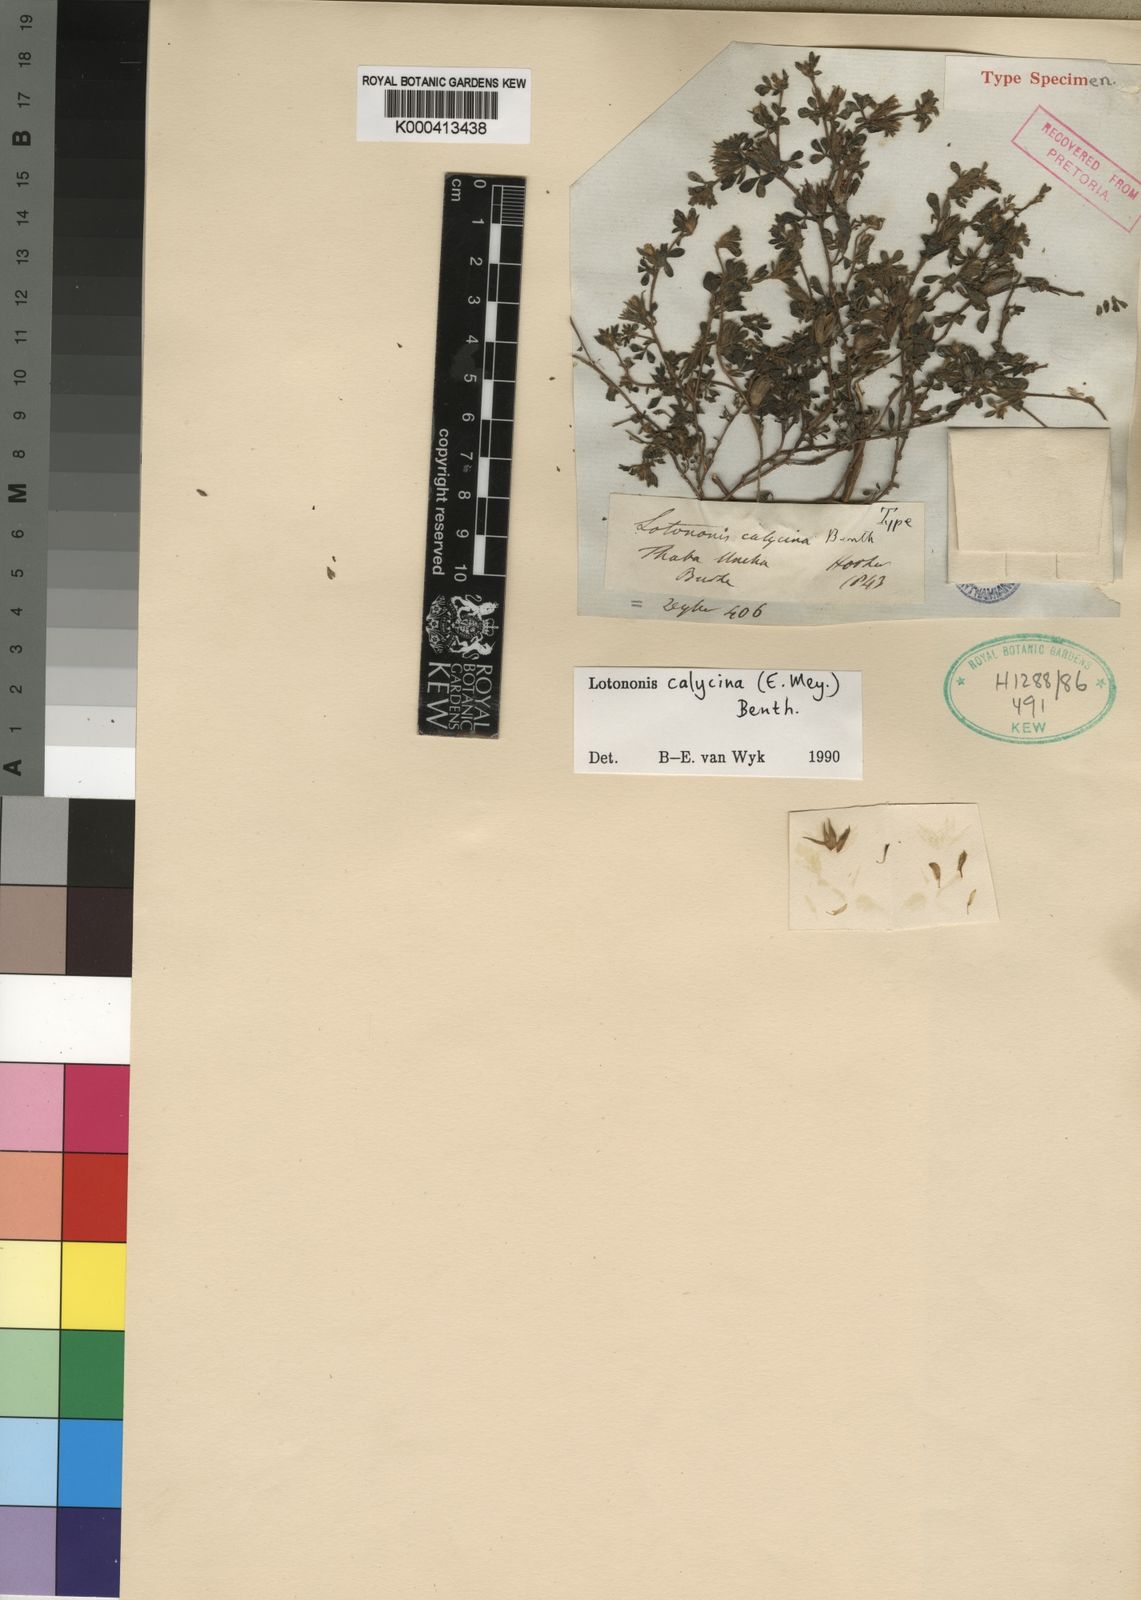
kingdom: Plantae
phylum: Tracheophyta
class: Magnoliopsida
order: Fabales
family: Fabaceae
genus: Leobordea
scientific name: Leobordea divaricata
